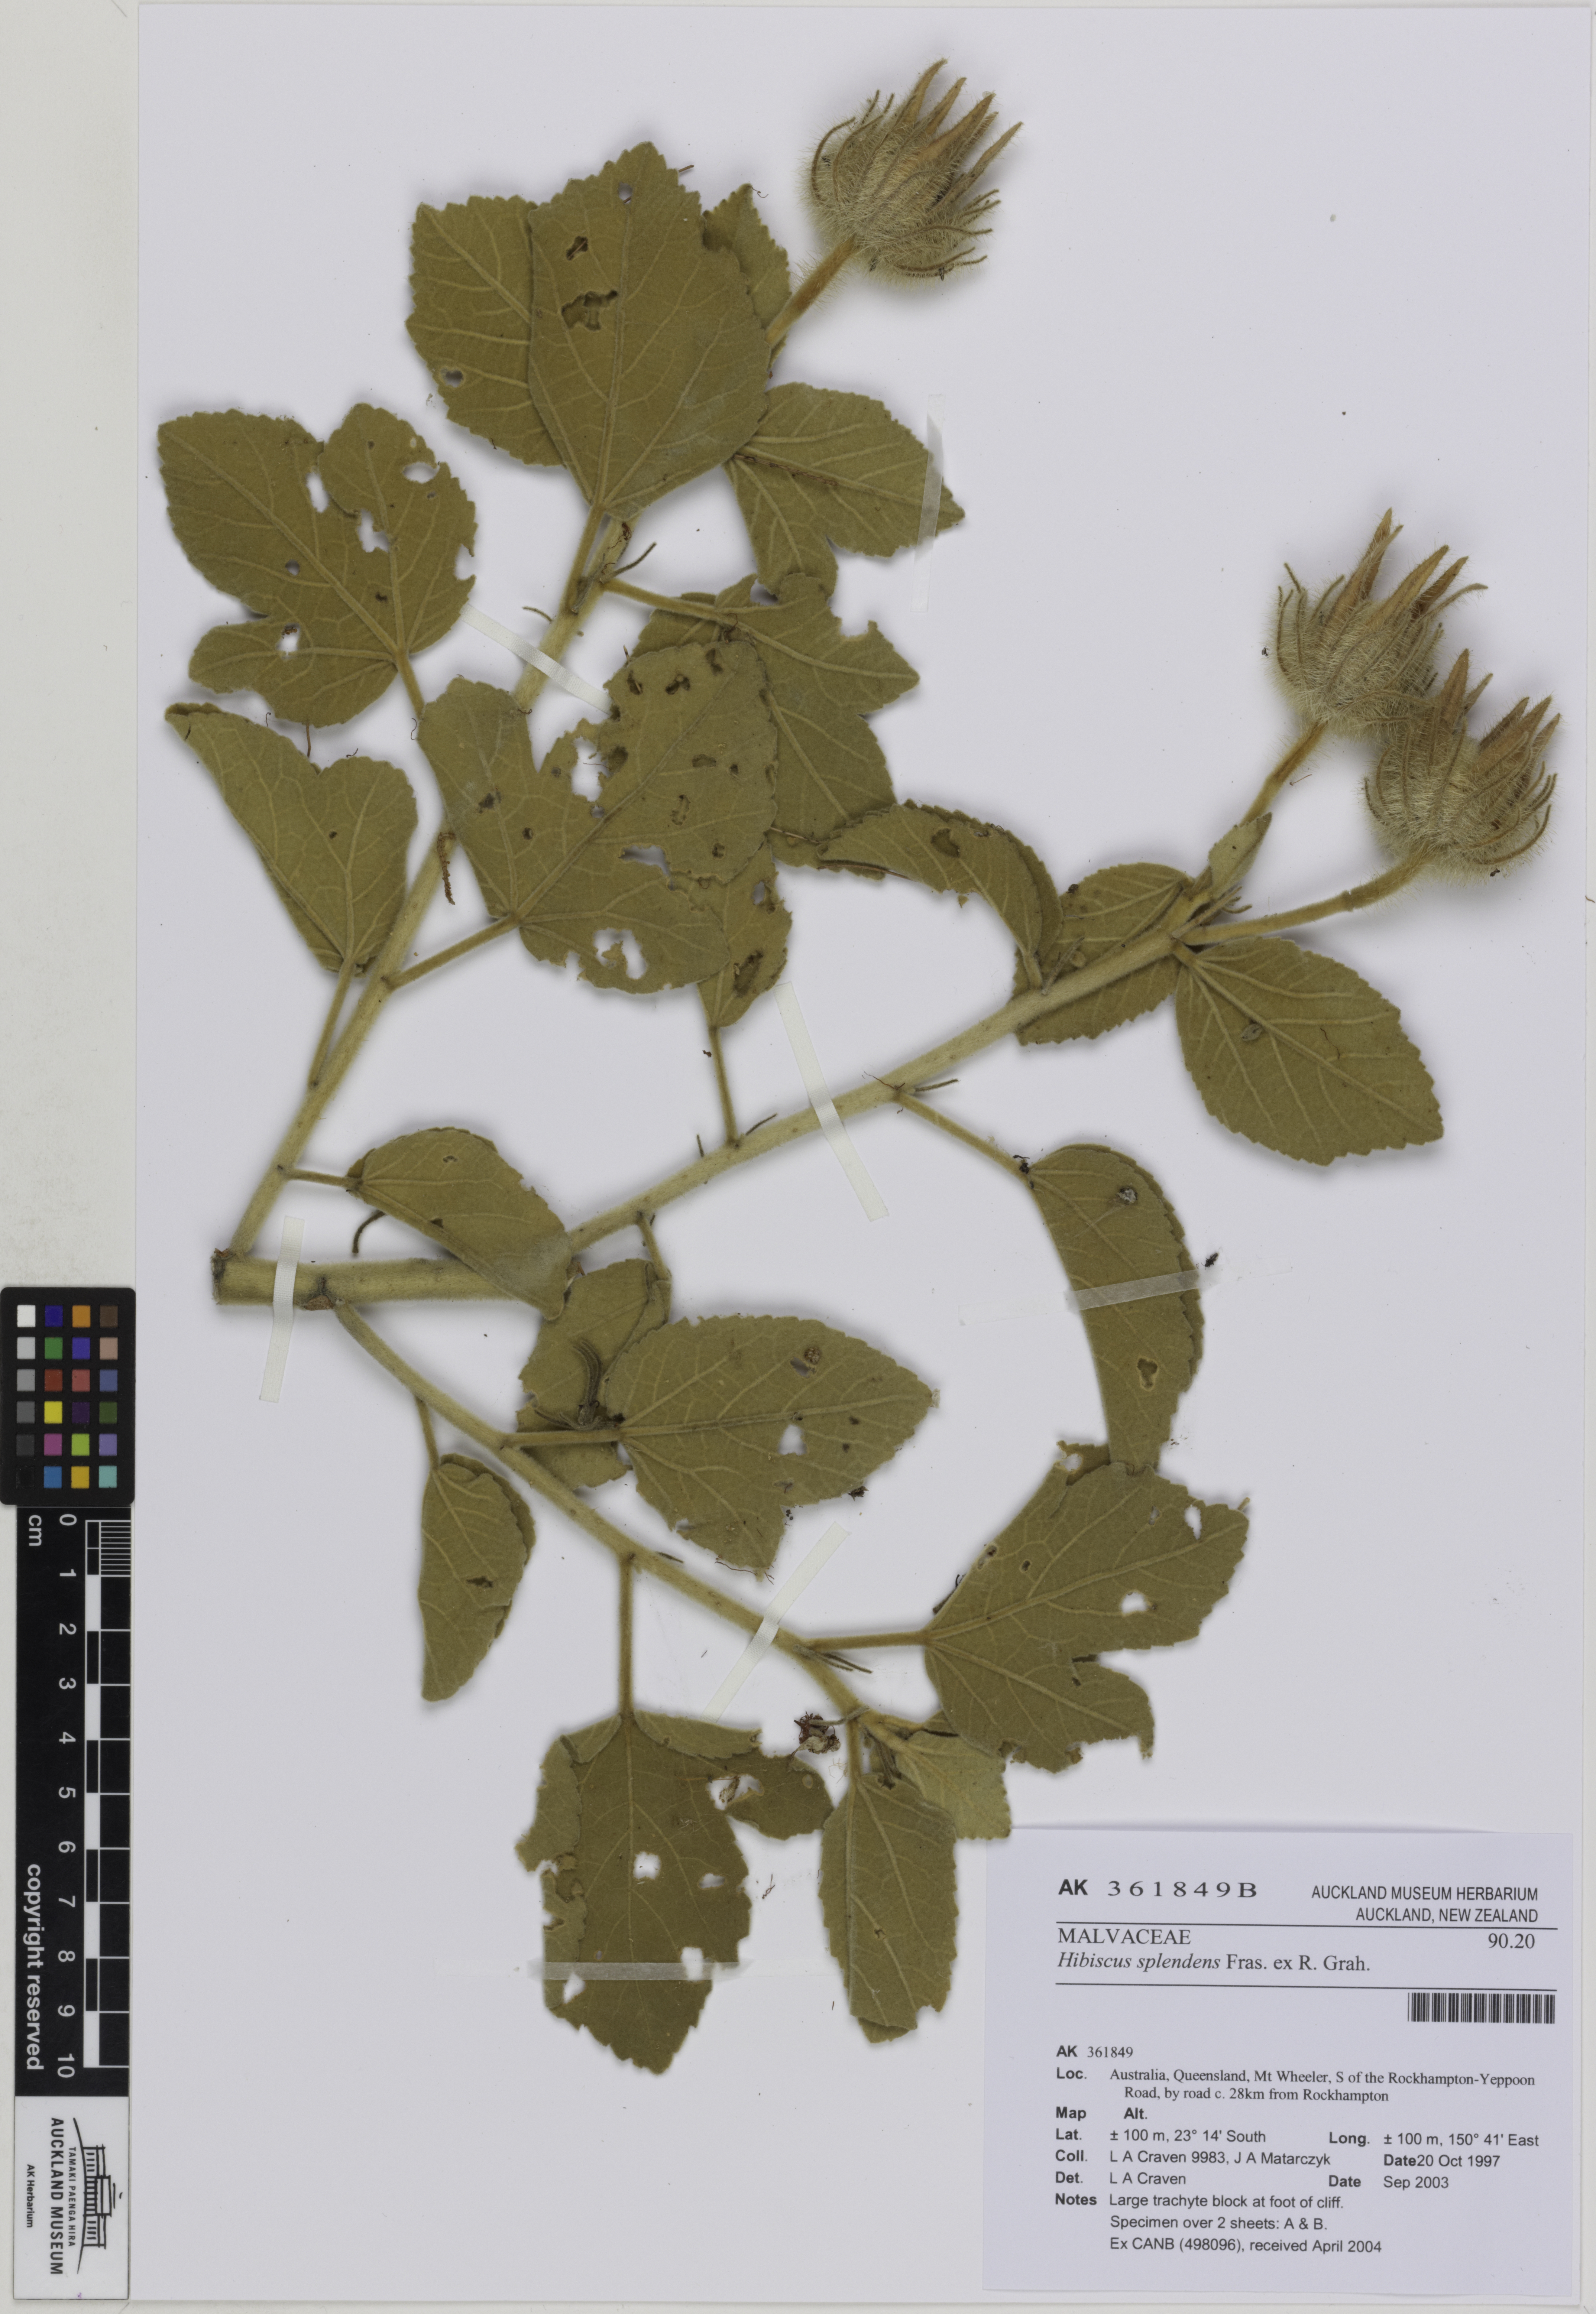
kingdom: Plantae
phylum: Tracheophyta
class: Magnoliopsida
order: Malvales
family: Malvaceae
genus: Hibiscus
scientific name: Hibiscus splendens
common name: Hollyhock-tree
